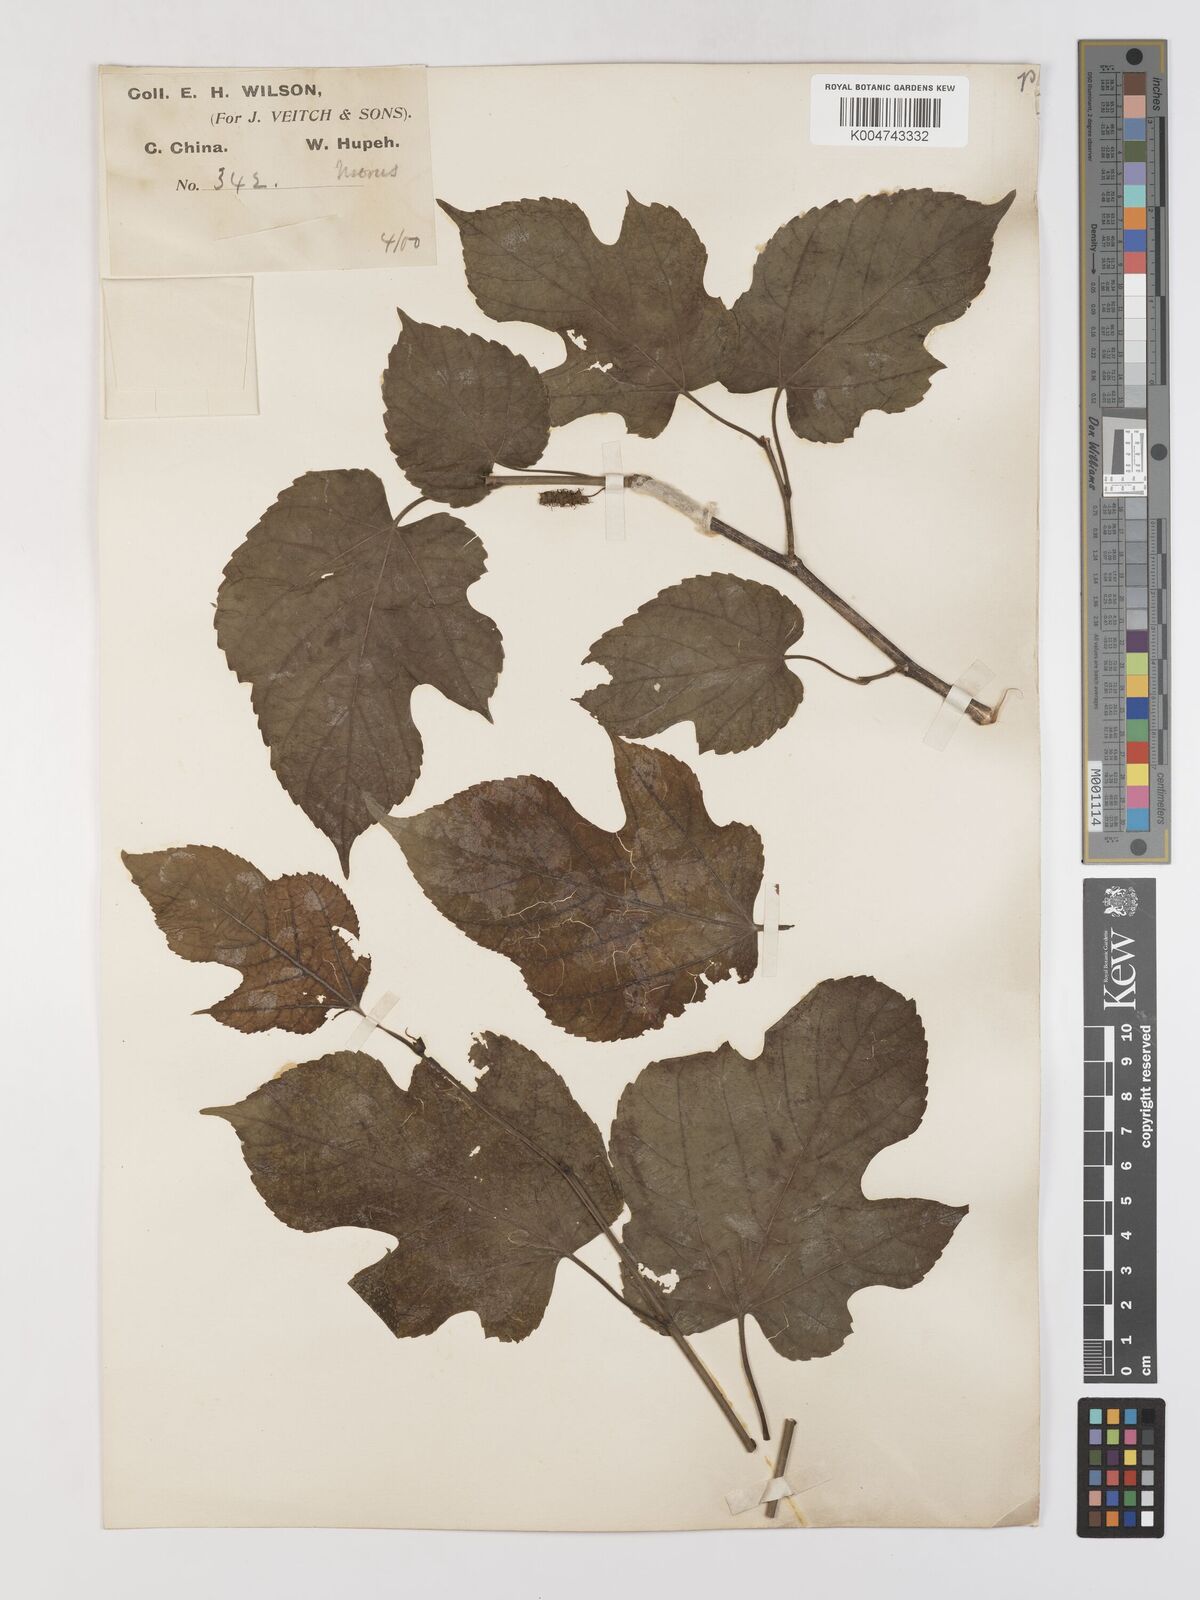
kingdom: Plantae
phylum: Tracheophyta
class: Magnoliopsida
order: Rosales
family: Moraceae
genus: Morus
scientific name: Morus cathayana
